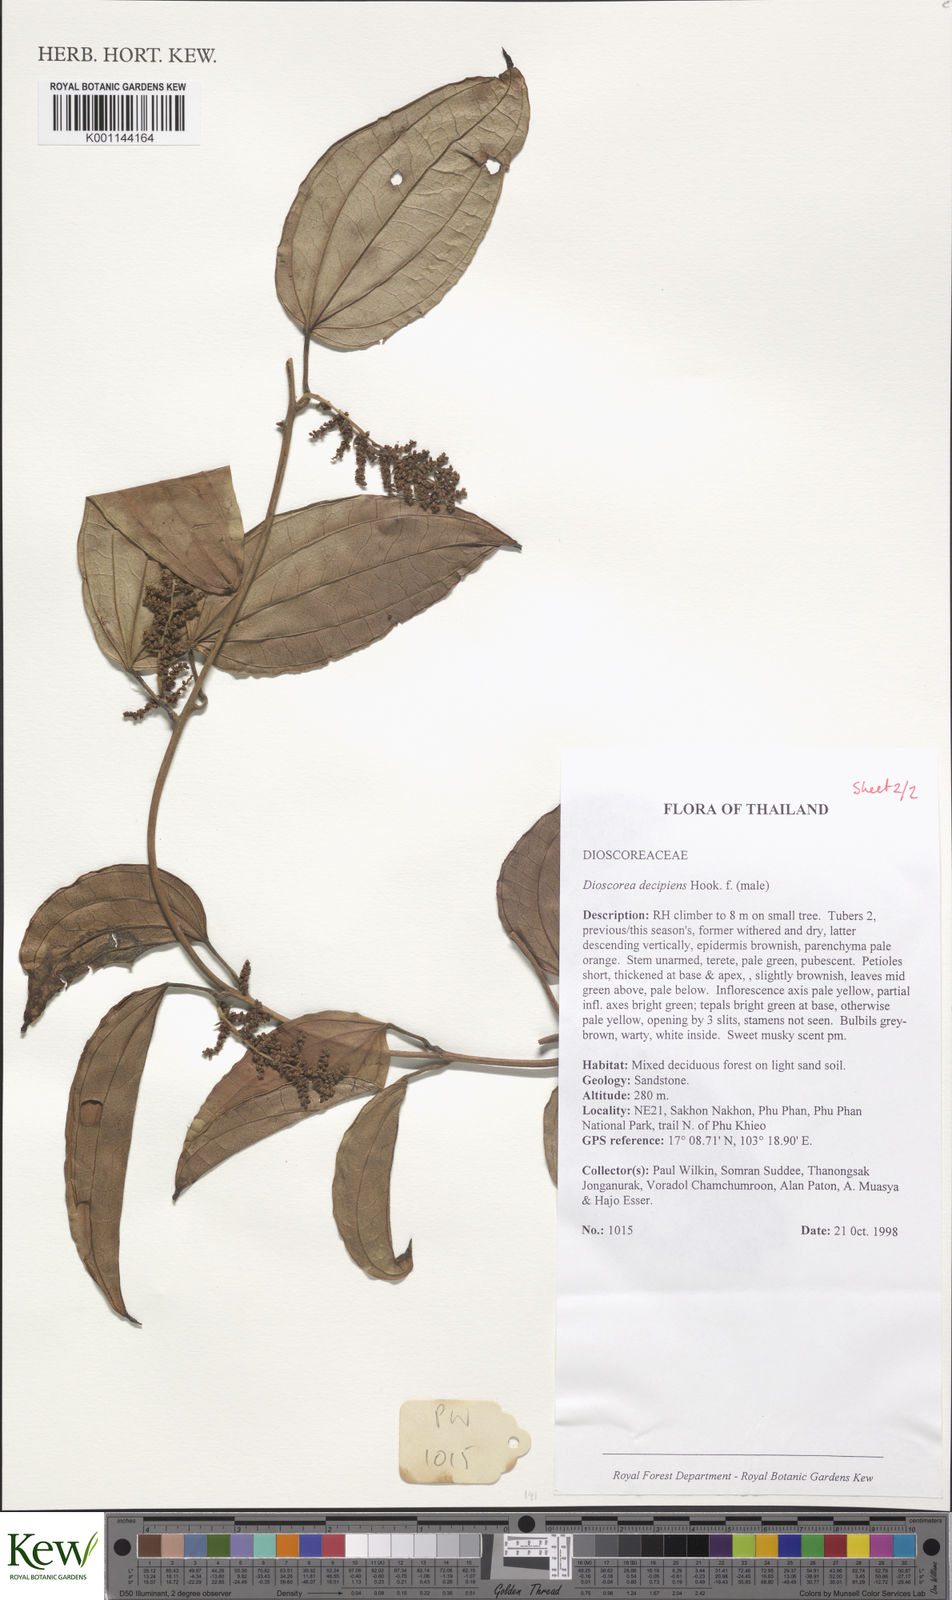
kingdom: Plantae
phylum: Tracheophyta
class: Liliopsida
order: Dioscoreales
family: Dioscoreaceae
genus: Dioscorea
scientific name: Dioscorea decipiens
